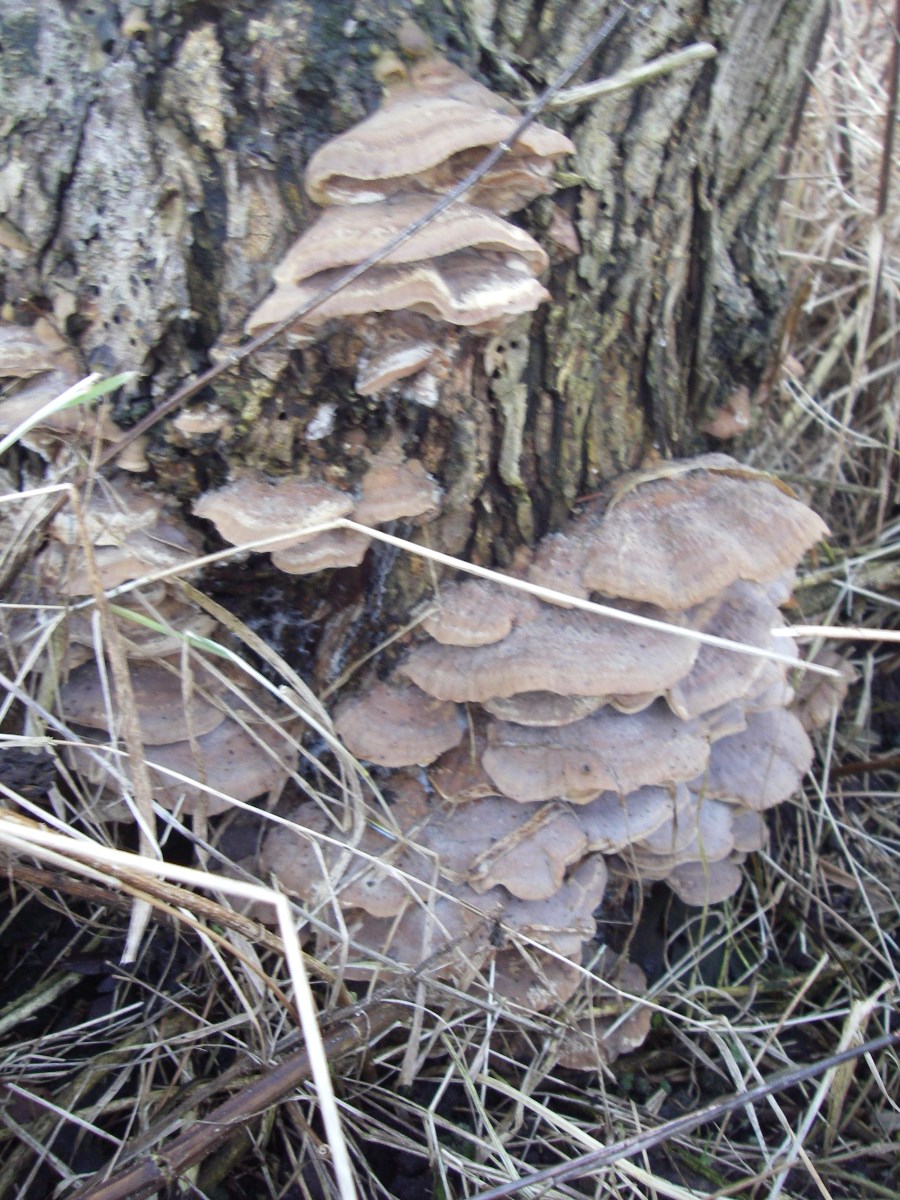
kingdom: Fungi
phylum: Basidiomycota
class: Agaricomycetes
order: Polyporales
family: Phanerochaetaceae
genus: Bjerkandera
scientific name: Bjerkandera fumosa
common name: grågul sodporesvamp
